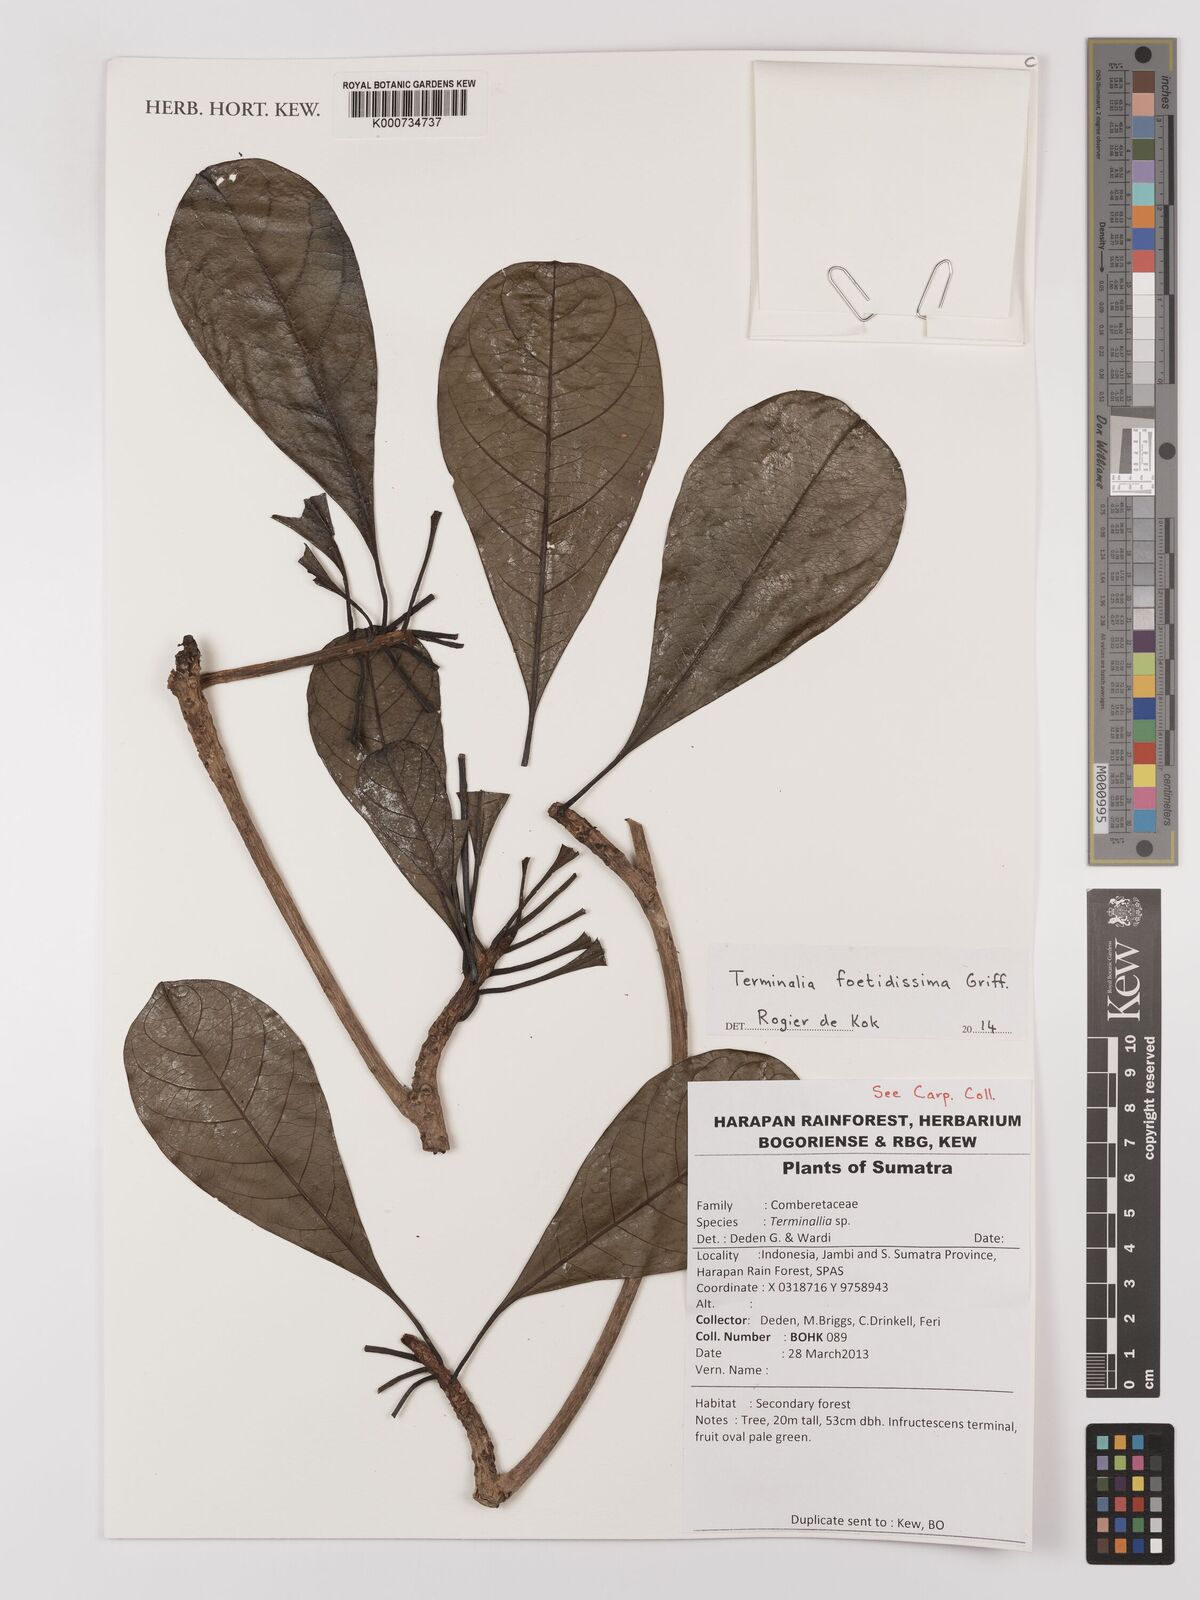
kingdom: Plantae
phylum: Tracheophyta
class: Magnoliopsida
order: Myrtales
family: Combretaceae
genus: Terminalia
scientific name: Terminalia foetidissima
